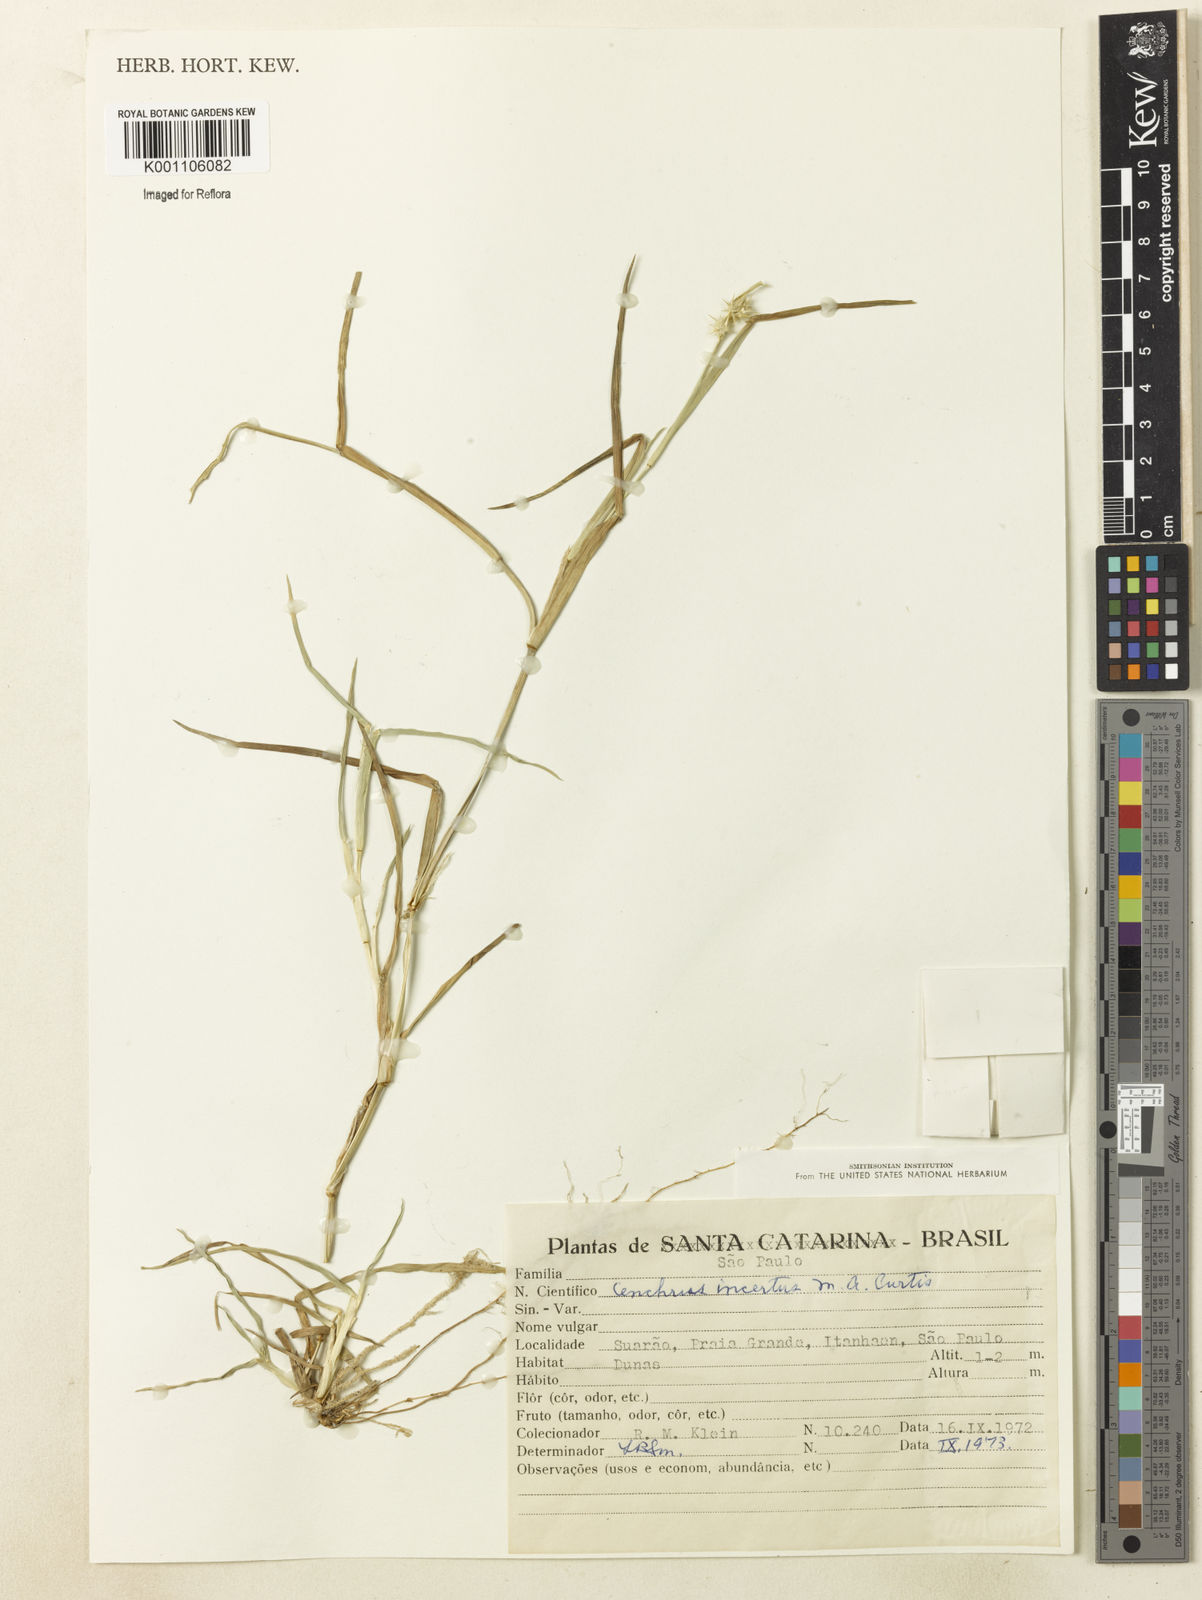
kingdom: Plantae
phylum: Tracheophyta
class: Liliopsida
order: Poales
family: Poaceae
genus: Cenchrus
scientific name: Cenchrus tribuloides
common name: Dune sandbur
